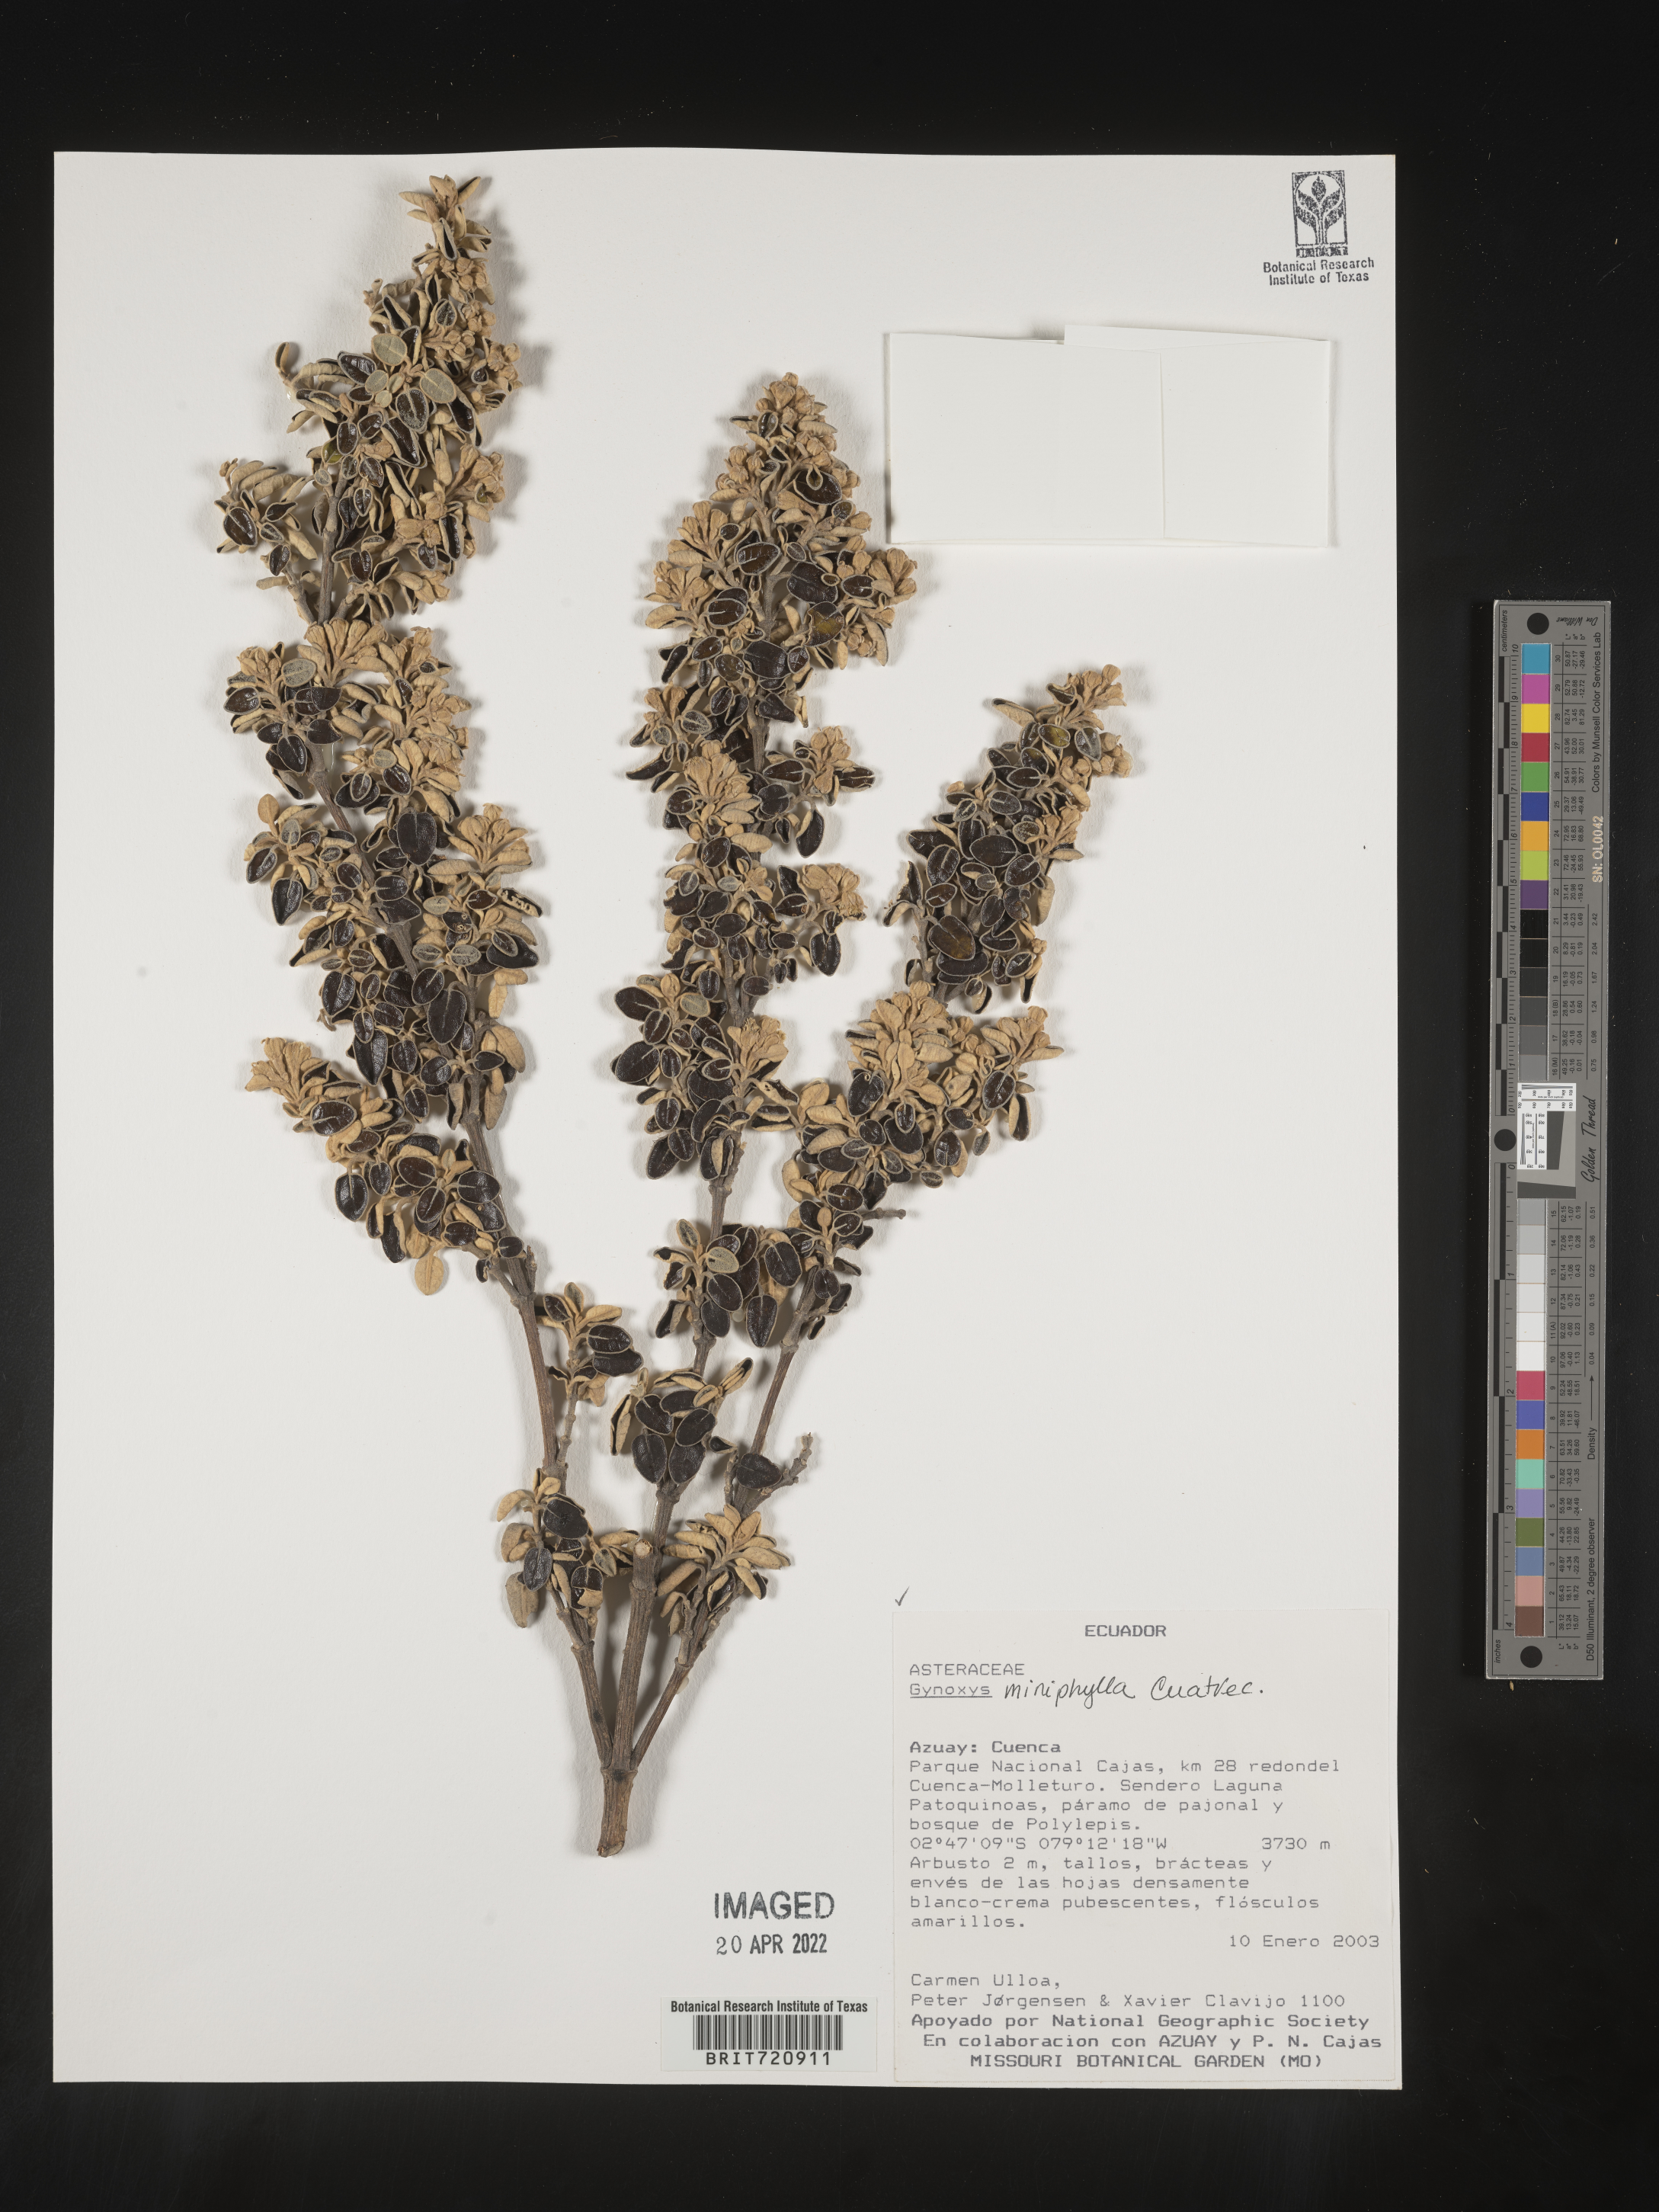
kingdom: Plantae
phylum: Tracheophyta
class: Magnoliopsida
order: Asterales
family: Asteraceae
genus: Gynoxys
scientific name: Gynoxys
